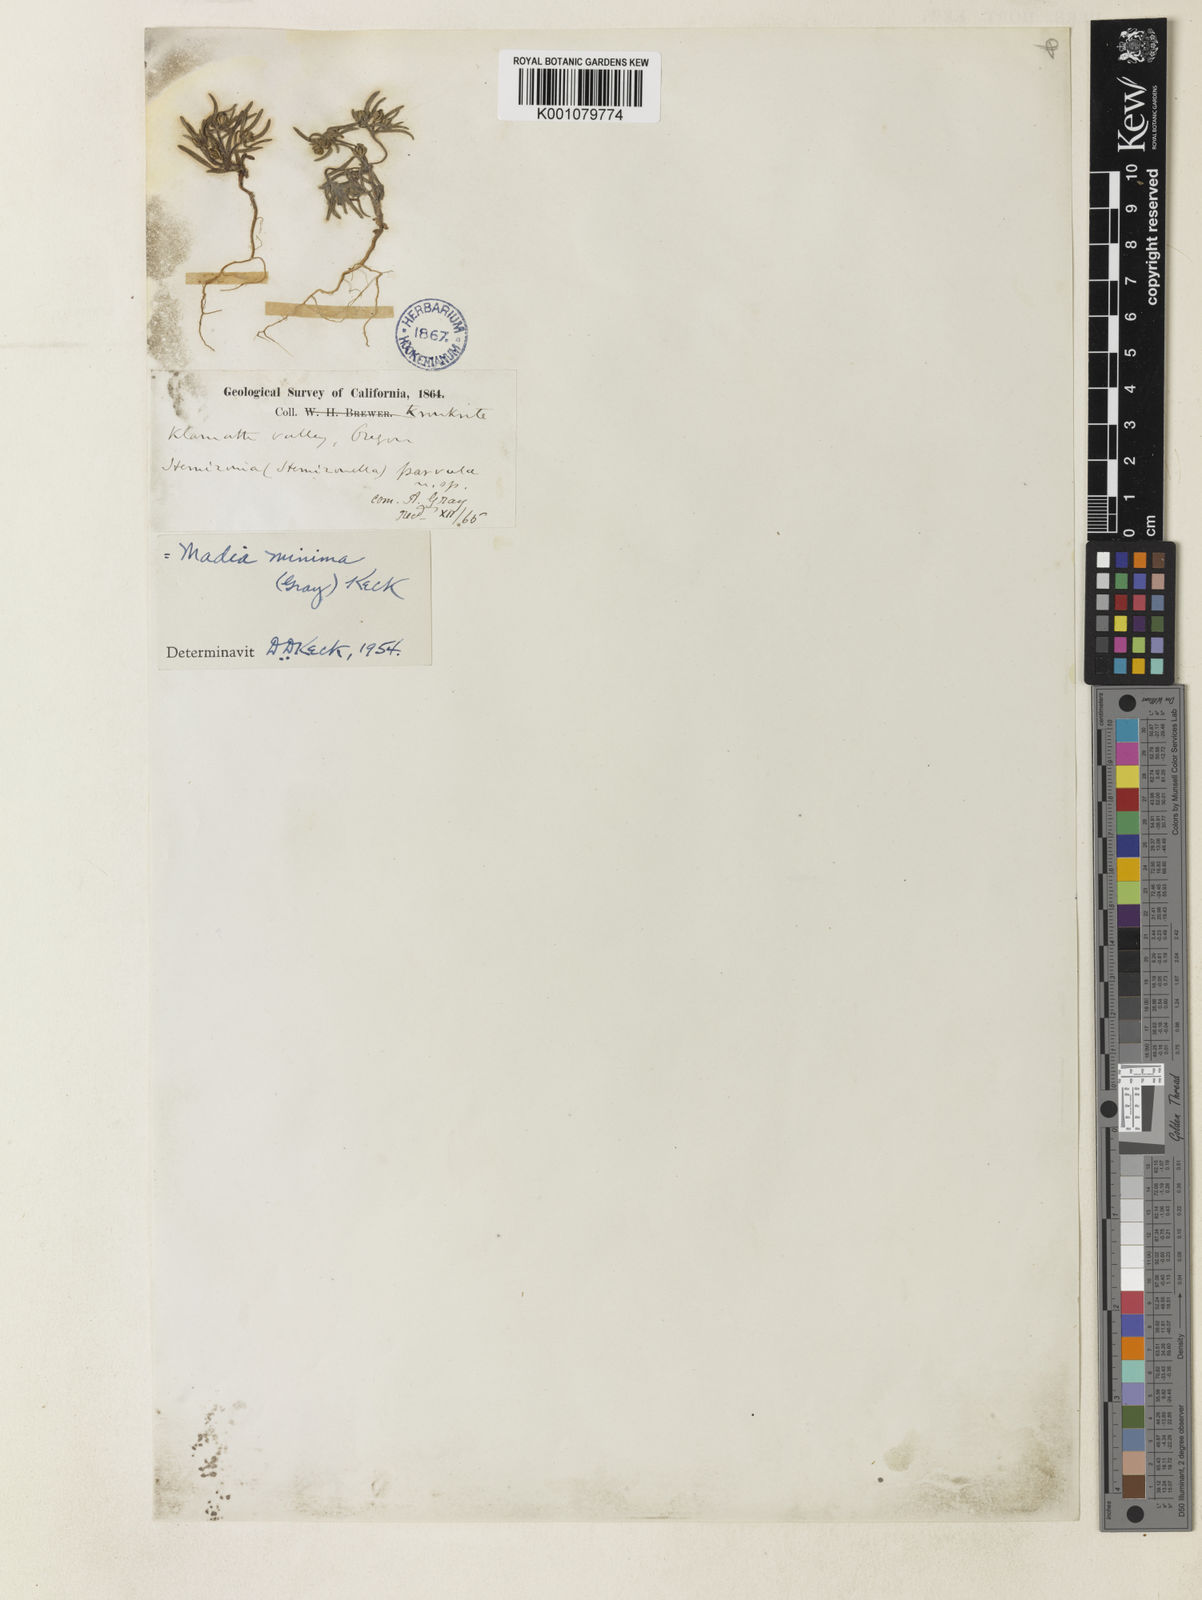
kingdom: Plantae
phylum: Tracheophyta
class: Magnoliopsida
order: Asterales
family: Asteraceae
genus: Hemizonella
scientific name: Hemizonella minima
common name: Opposite-leaved tarweed
